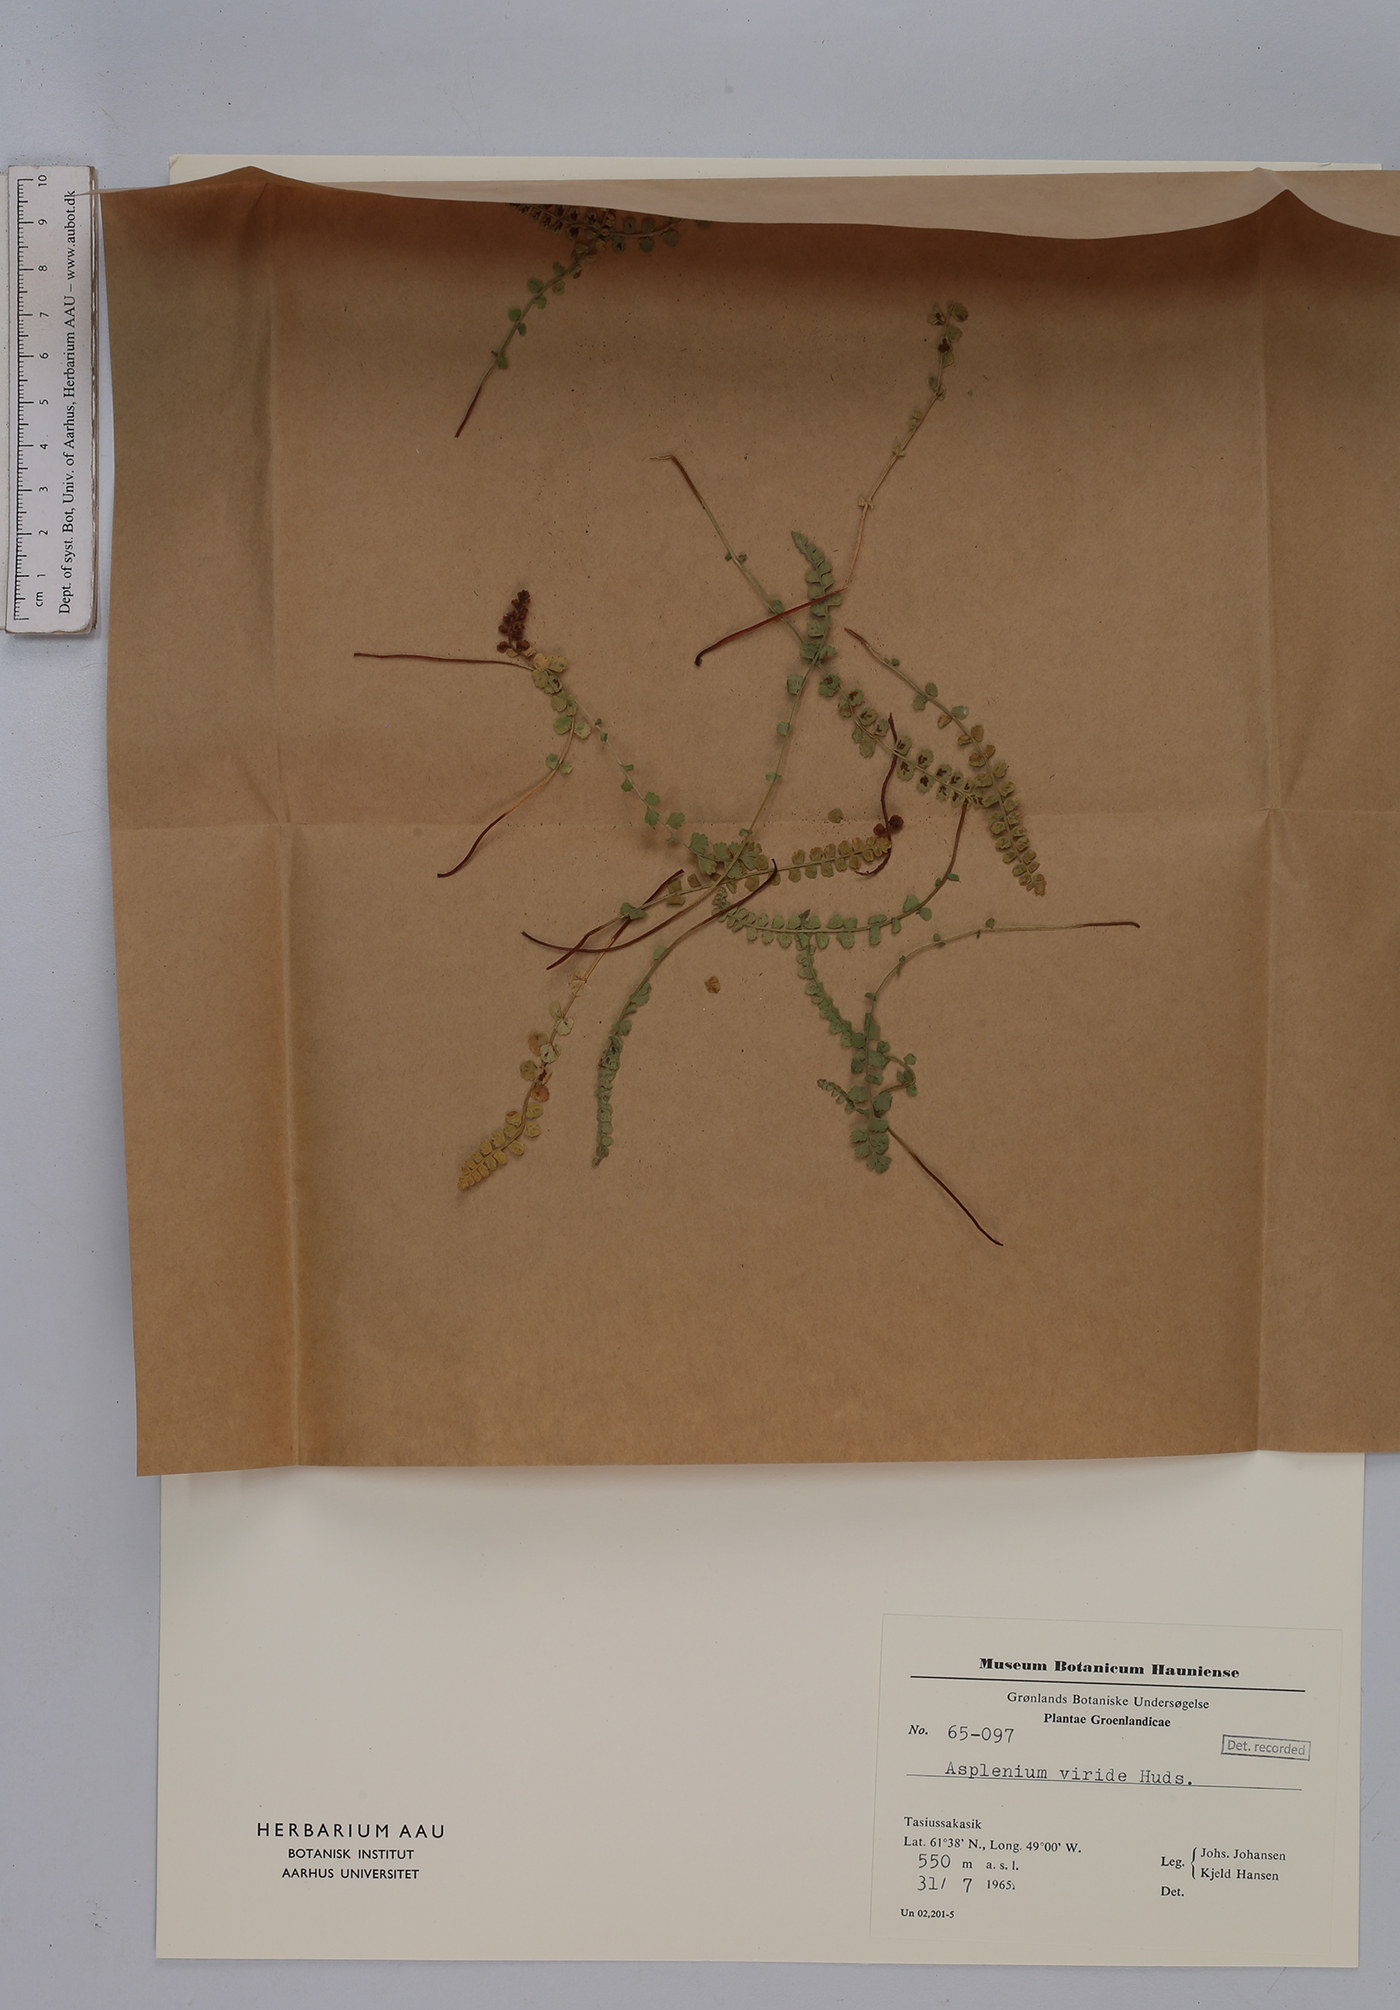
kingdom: Plantae
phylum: Tracheophyta
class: Polypodiopsida
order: Polypodiales
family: Aspleniaceae
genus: Asplenium
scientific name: Asplenium viride
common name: Green spleenwort
